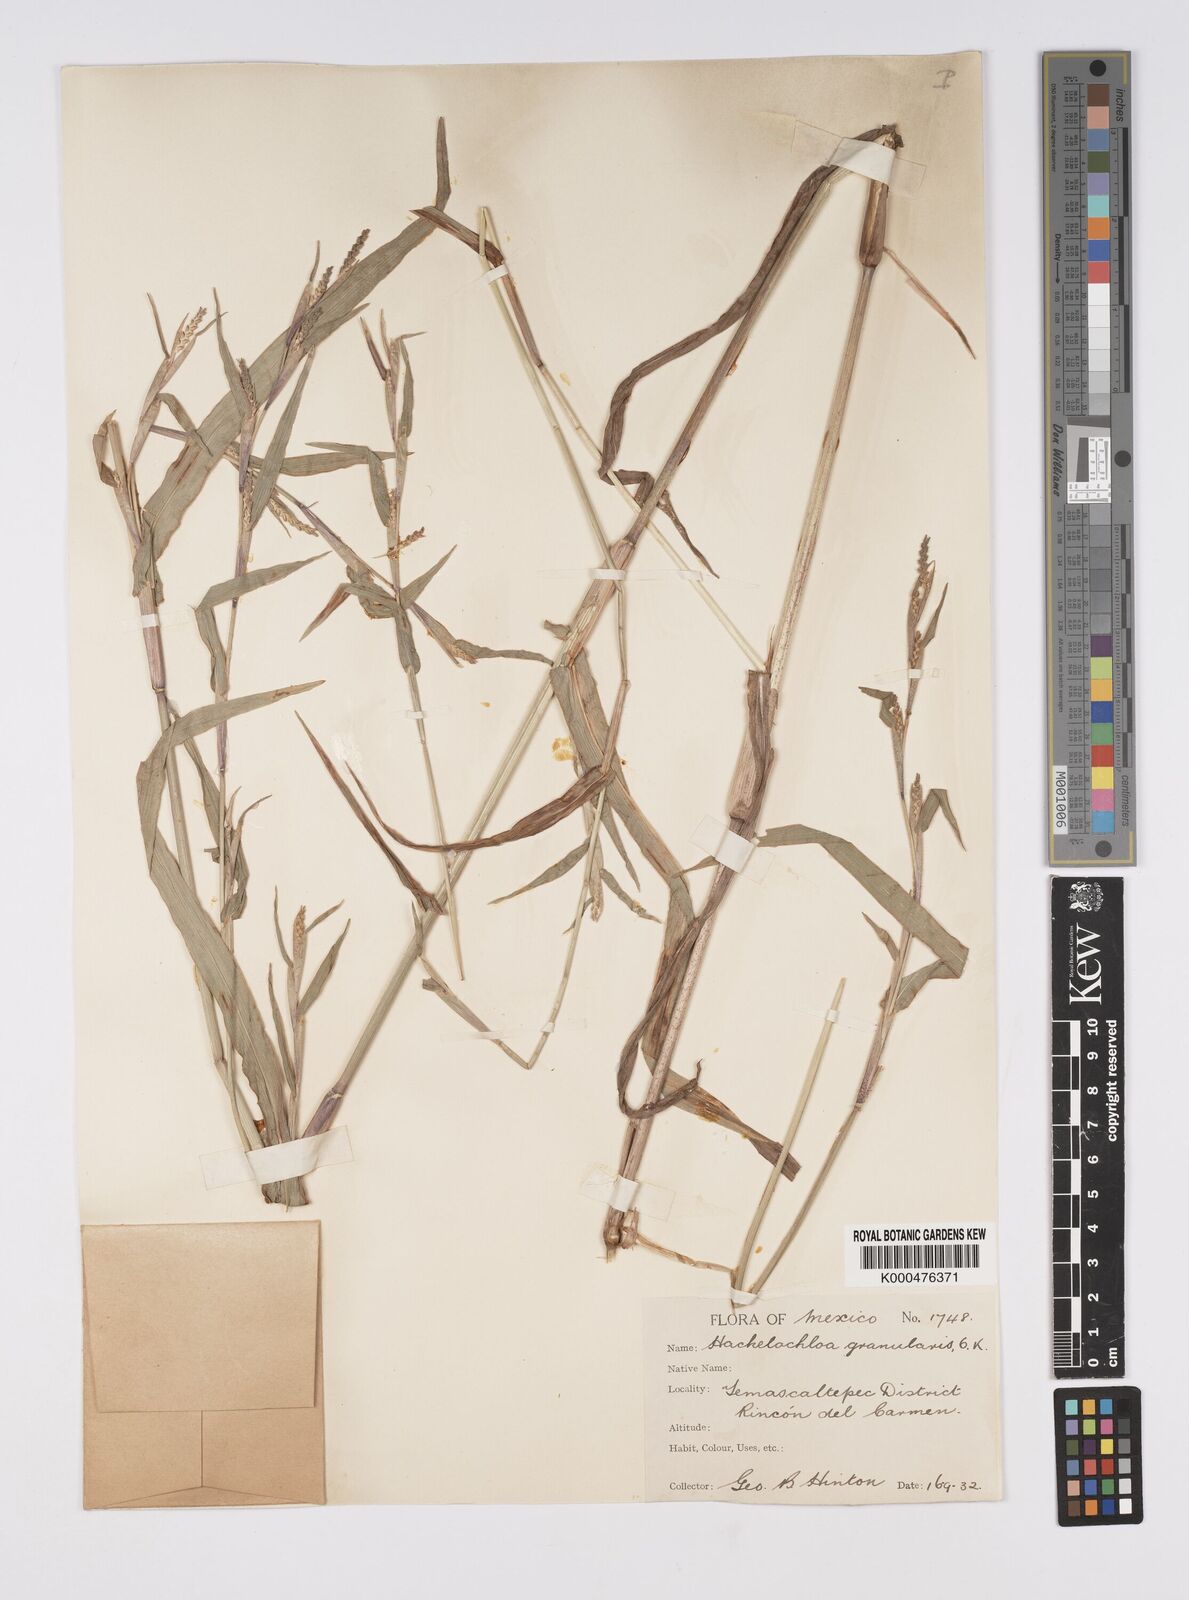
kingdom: Plantae
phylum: Tracheophyta
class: Liliopsida
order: Poales
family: Poaceae
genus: Hackelochloa
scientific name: Hackelochloa granularis
